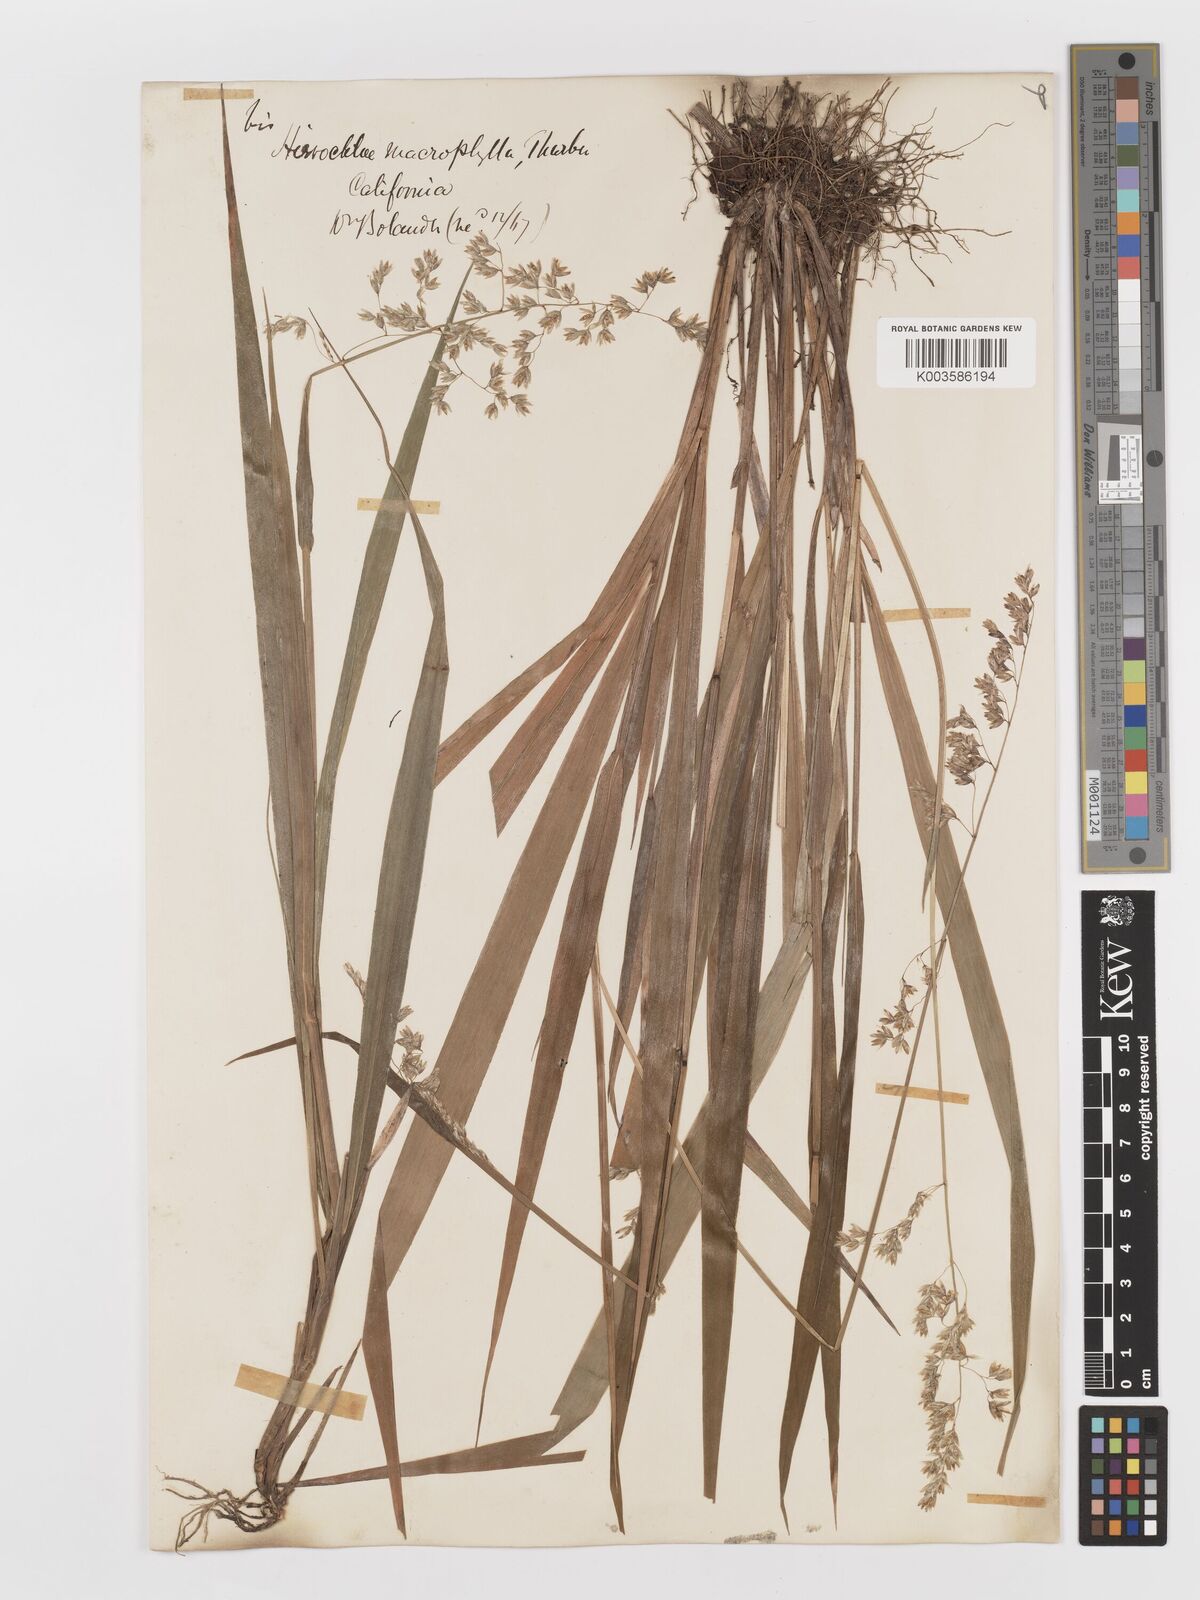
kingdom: Plantae
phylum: Tracheophyta
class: Liliopsida
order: Poales
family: Poaceae
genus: Anthoxanthum
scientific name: Anthoxanthum occidentale
